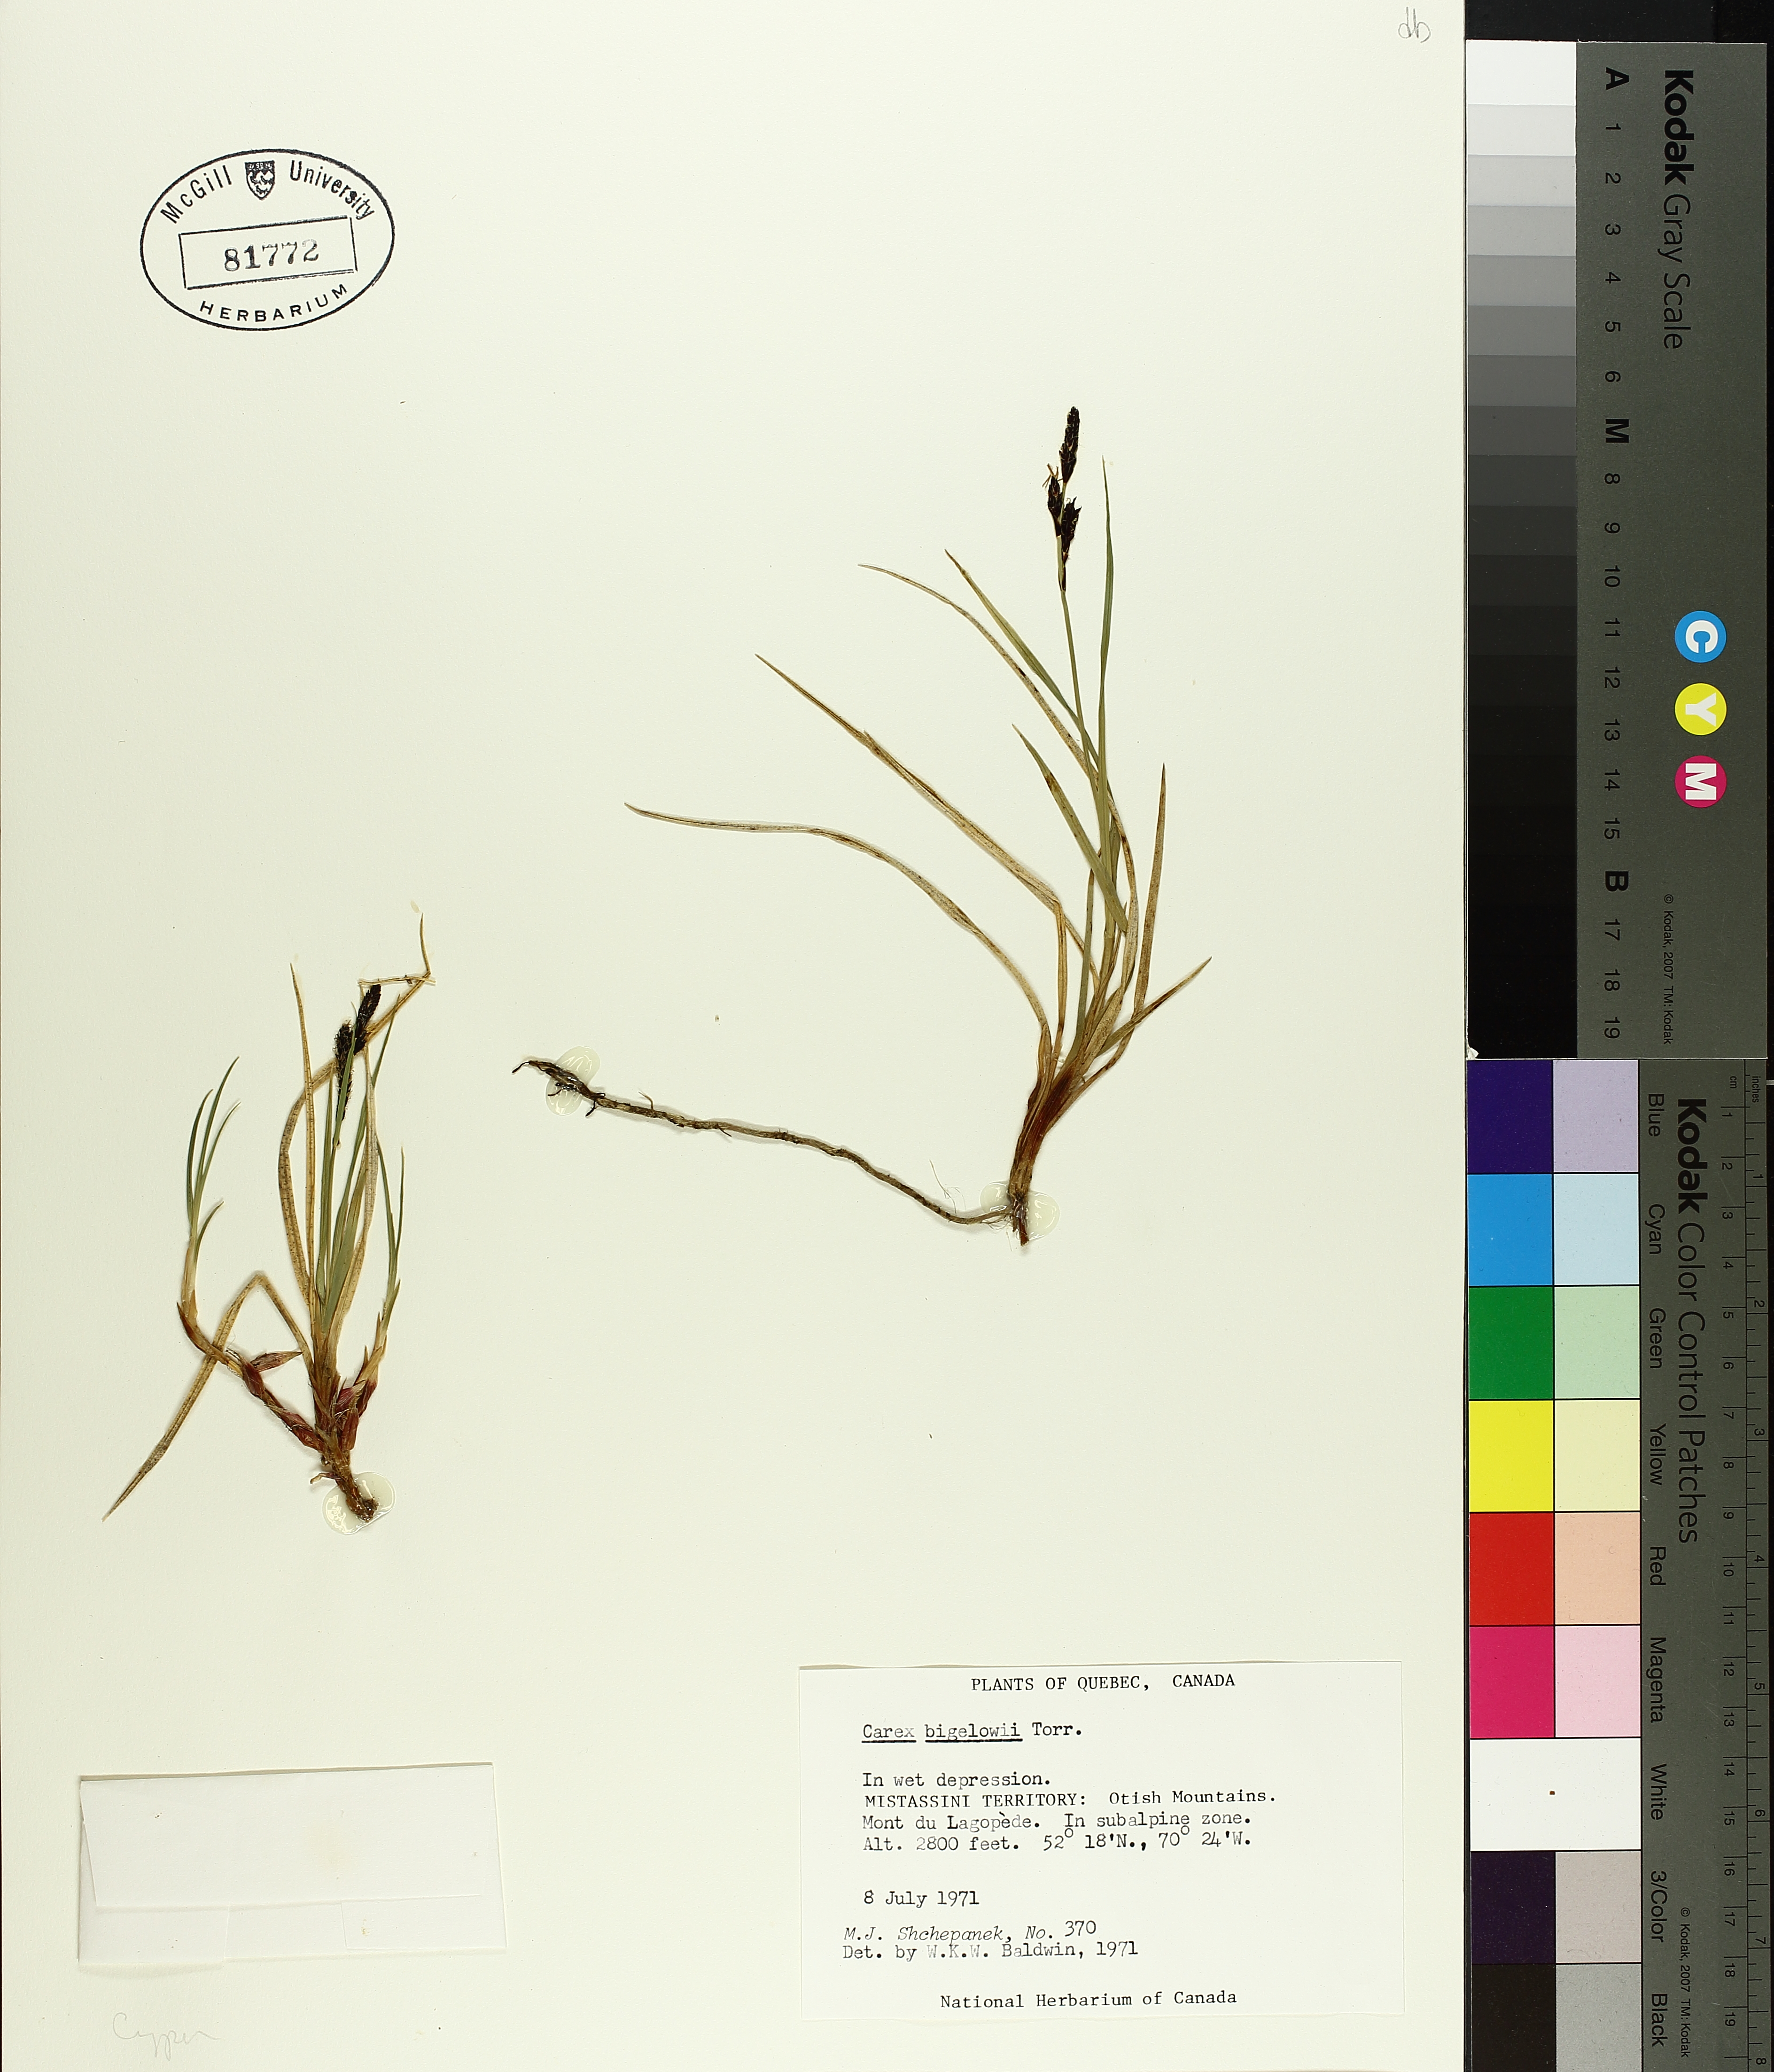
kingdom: Plantae
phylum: Tracheophyta
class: Liliopsida
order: Poales
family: Cyperaceae
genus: Carex
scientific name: Carex bigelowii
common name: Stiff sedge
